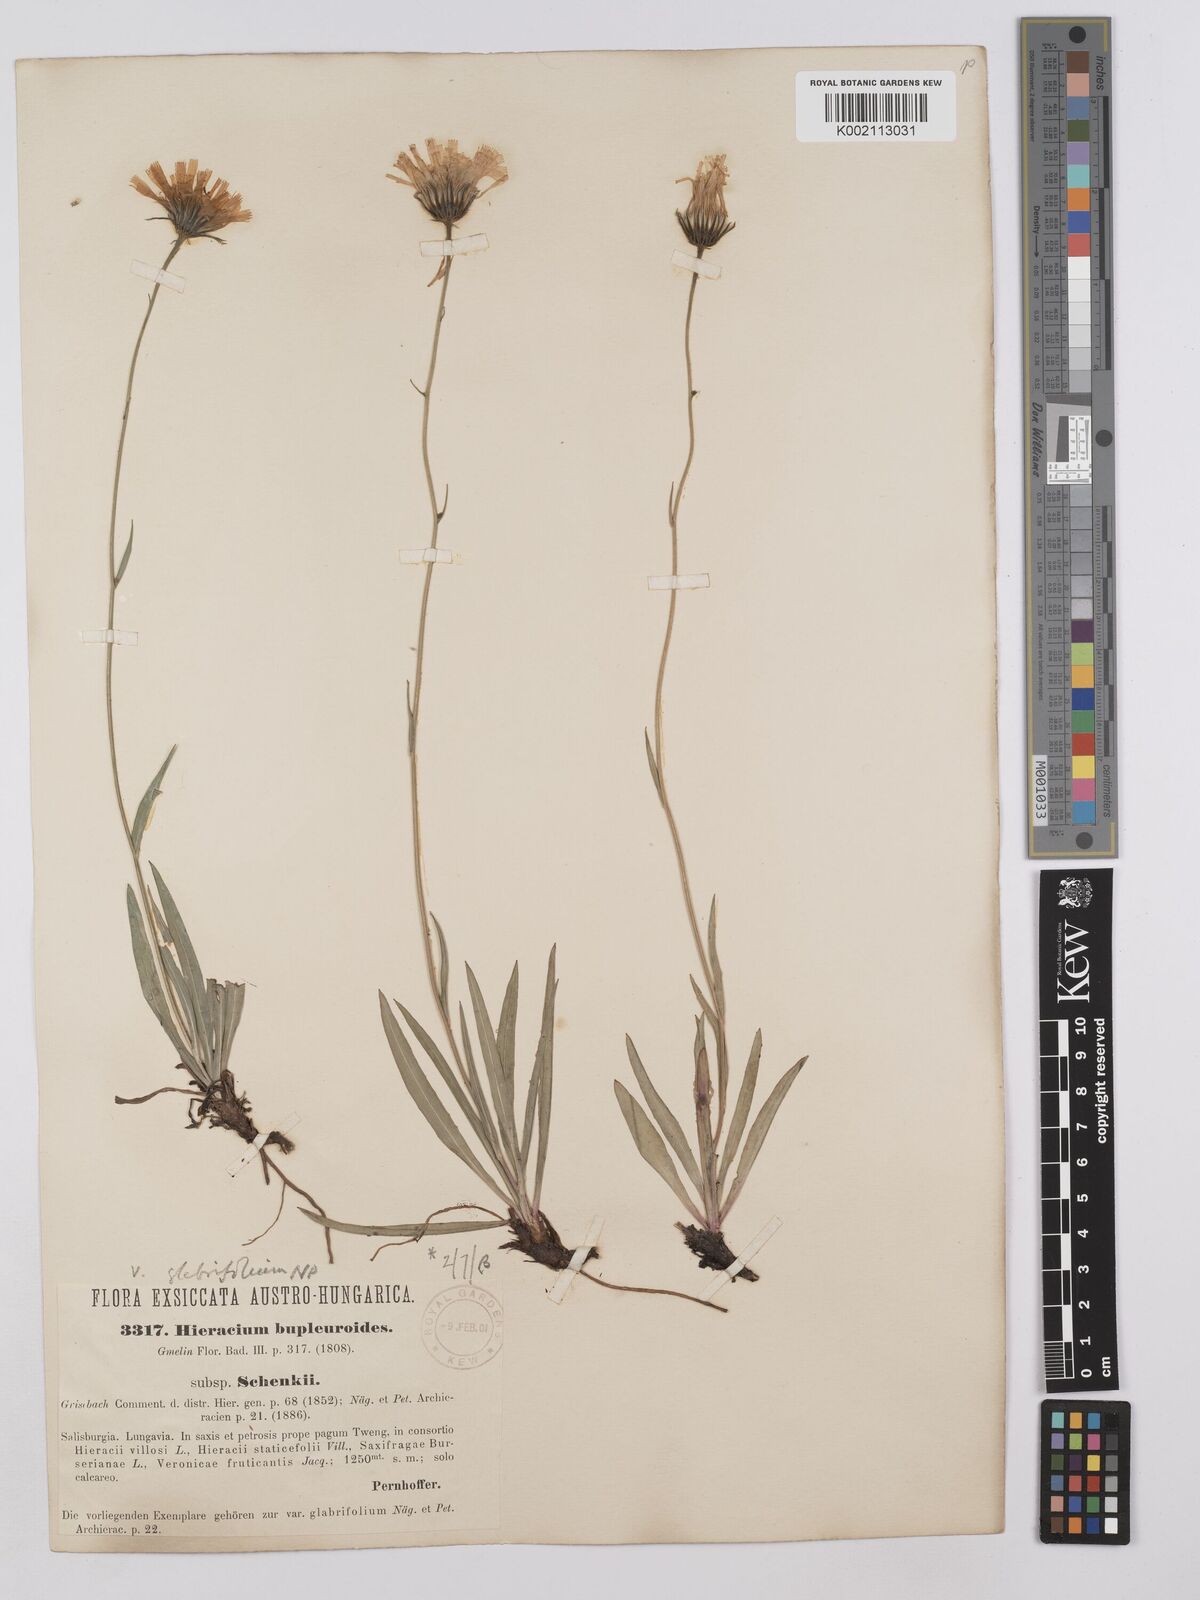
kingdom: Plantae
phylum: Tracheophyta
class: Magnoliopsida
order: Asterales
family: Asteraceae
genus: Hieracium
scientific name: Hieracium bupleuroides
